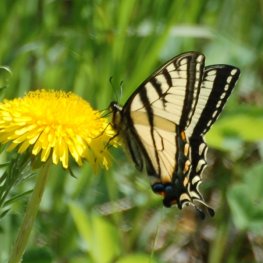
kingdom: Animalia
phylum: Arthropoda
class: Insecta
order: Lepidoptera
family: Papilionidae
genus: Pterourus
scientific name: Pterourus canadensis
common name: Canadian Tiger Swallowtail
